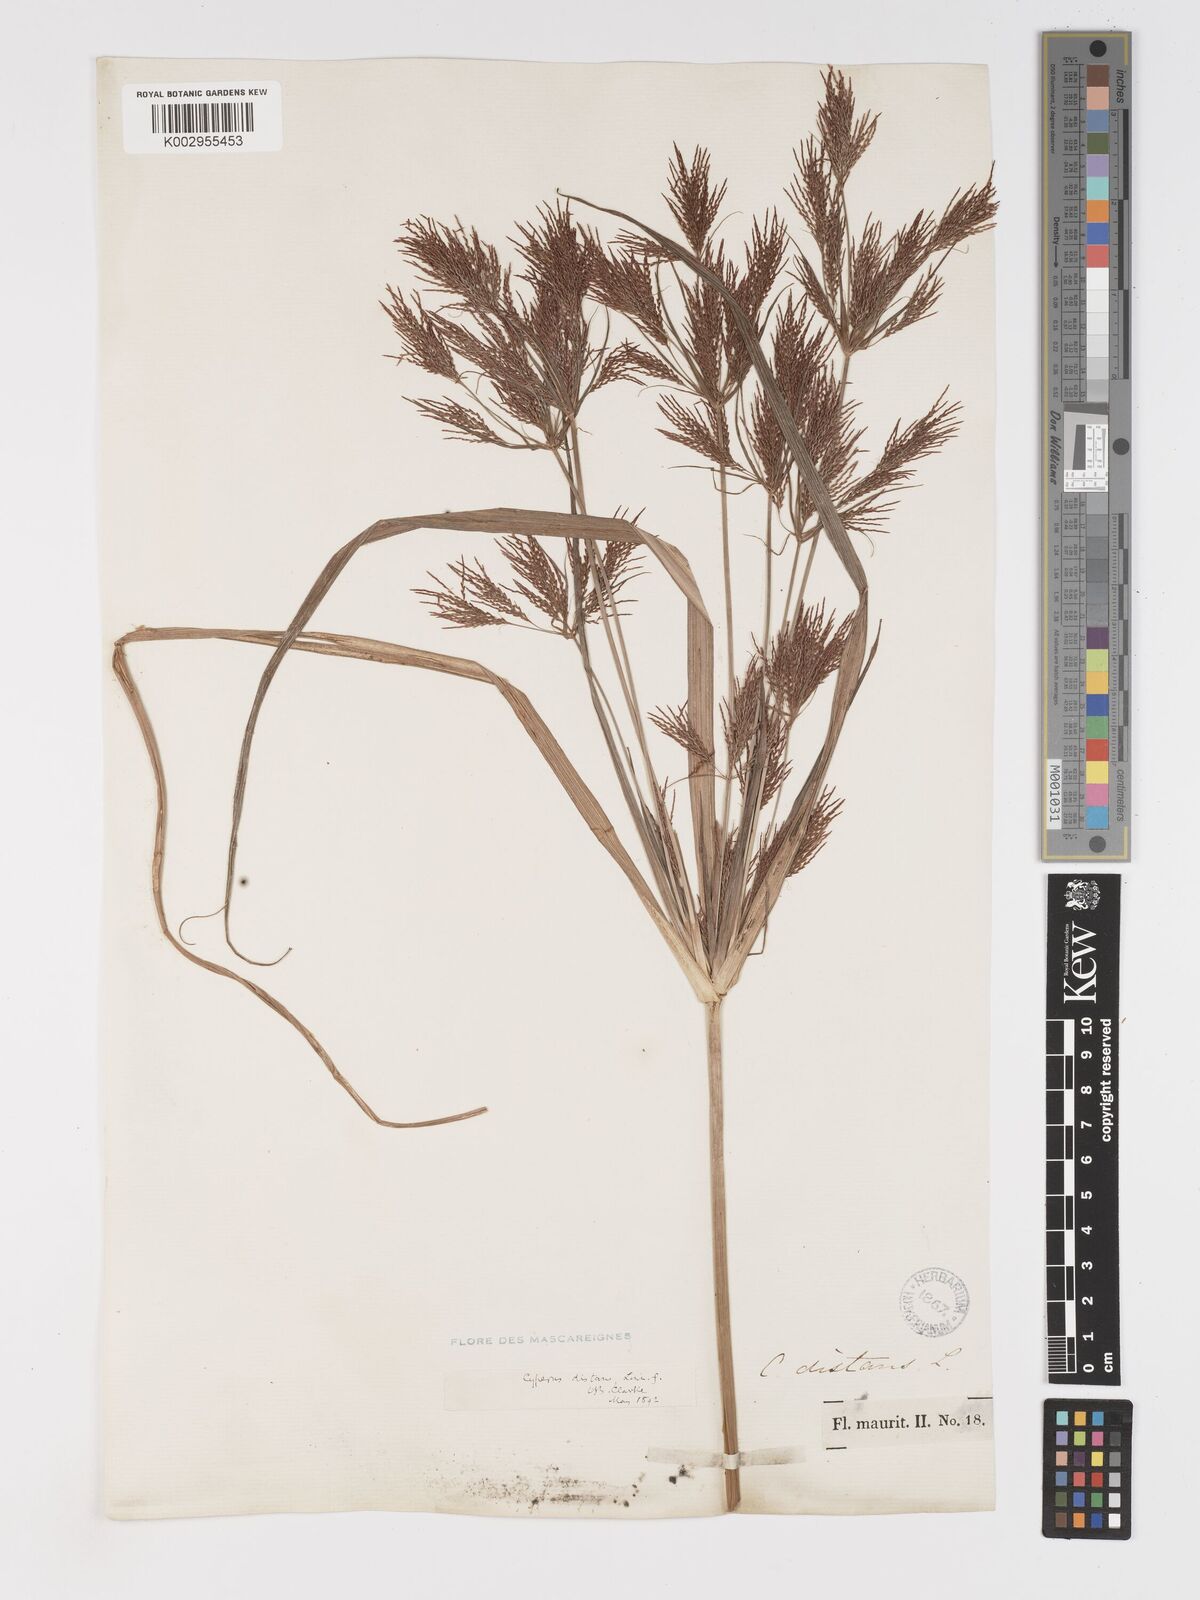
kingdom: Plantae
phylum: Tracheophyta
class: Liliopsida
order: Poales
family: Cyperaceae
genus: Cyperus
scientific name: Cyperus distans
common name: Slender cyperus
